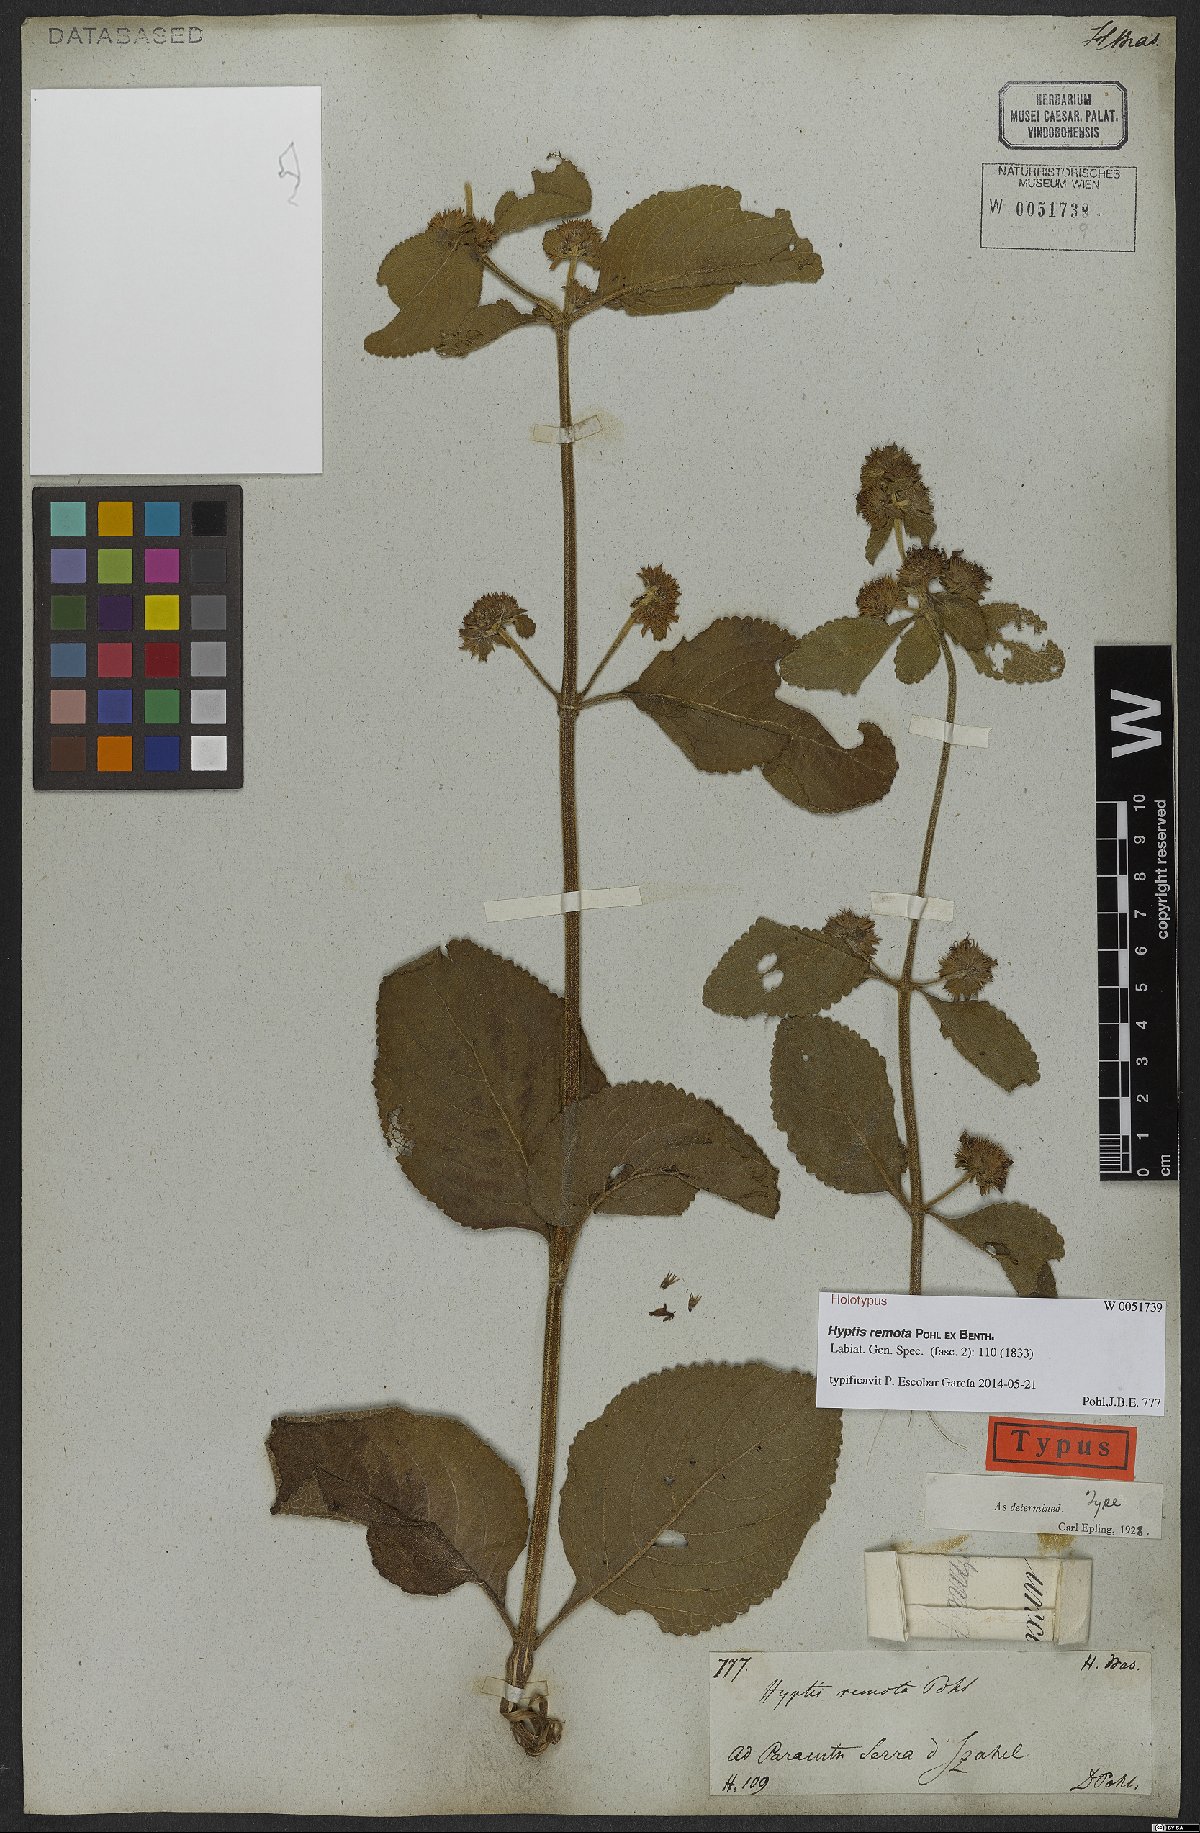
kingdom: Plantae
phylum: Tracheophyta
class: Magnoliopsida
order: Lamiales
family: Lamiaceae
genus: Hyptis
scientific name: Hyptis remota
